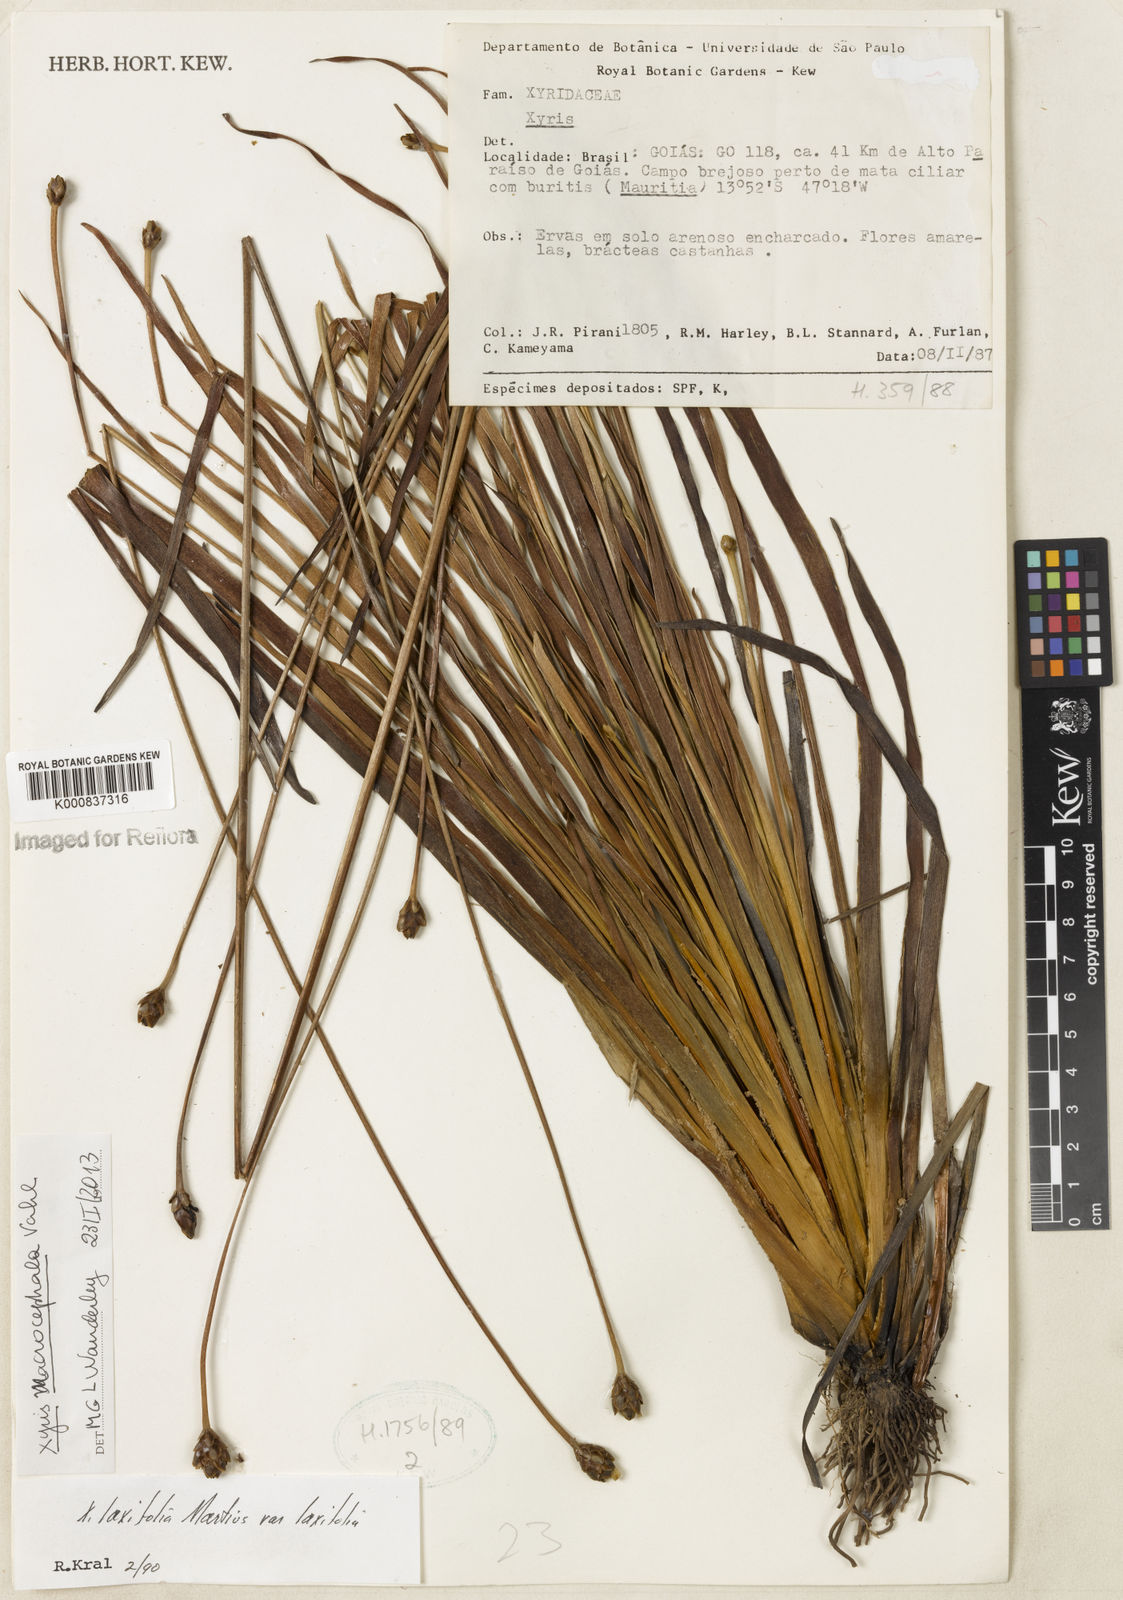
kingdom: Plantae
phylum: Tracheophyta
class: Liliopsida
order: Poales
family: Xyridaceae
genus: Xyris
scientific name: Xyris jupicai
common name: Richard's yelloweyed grass
